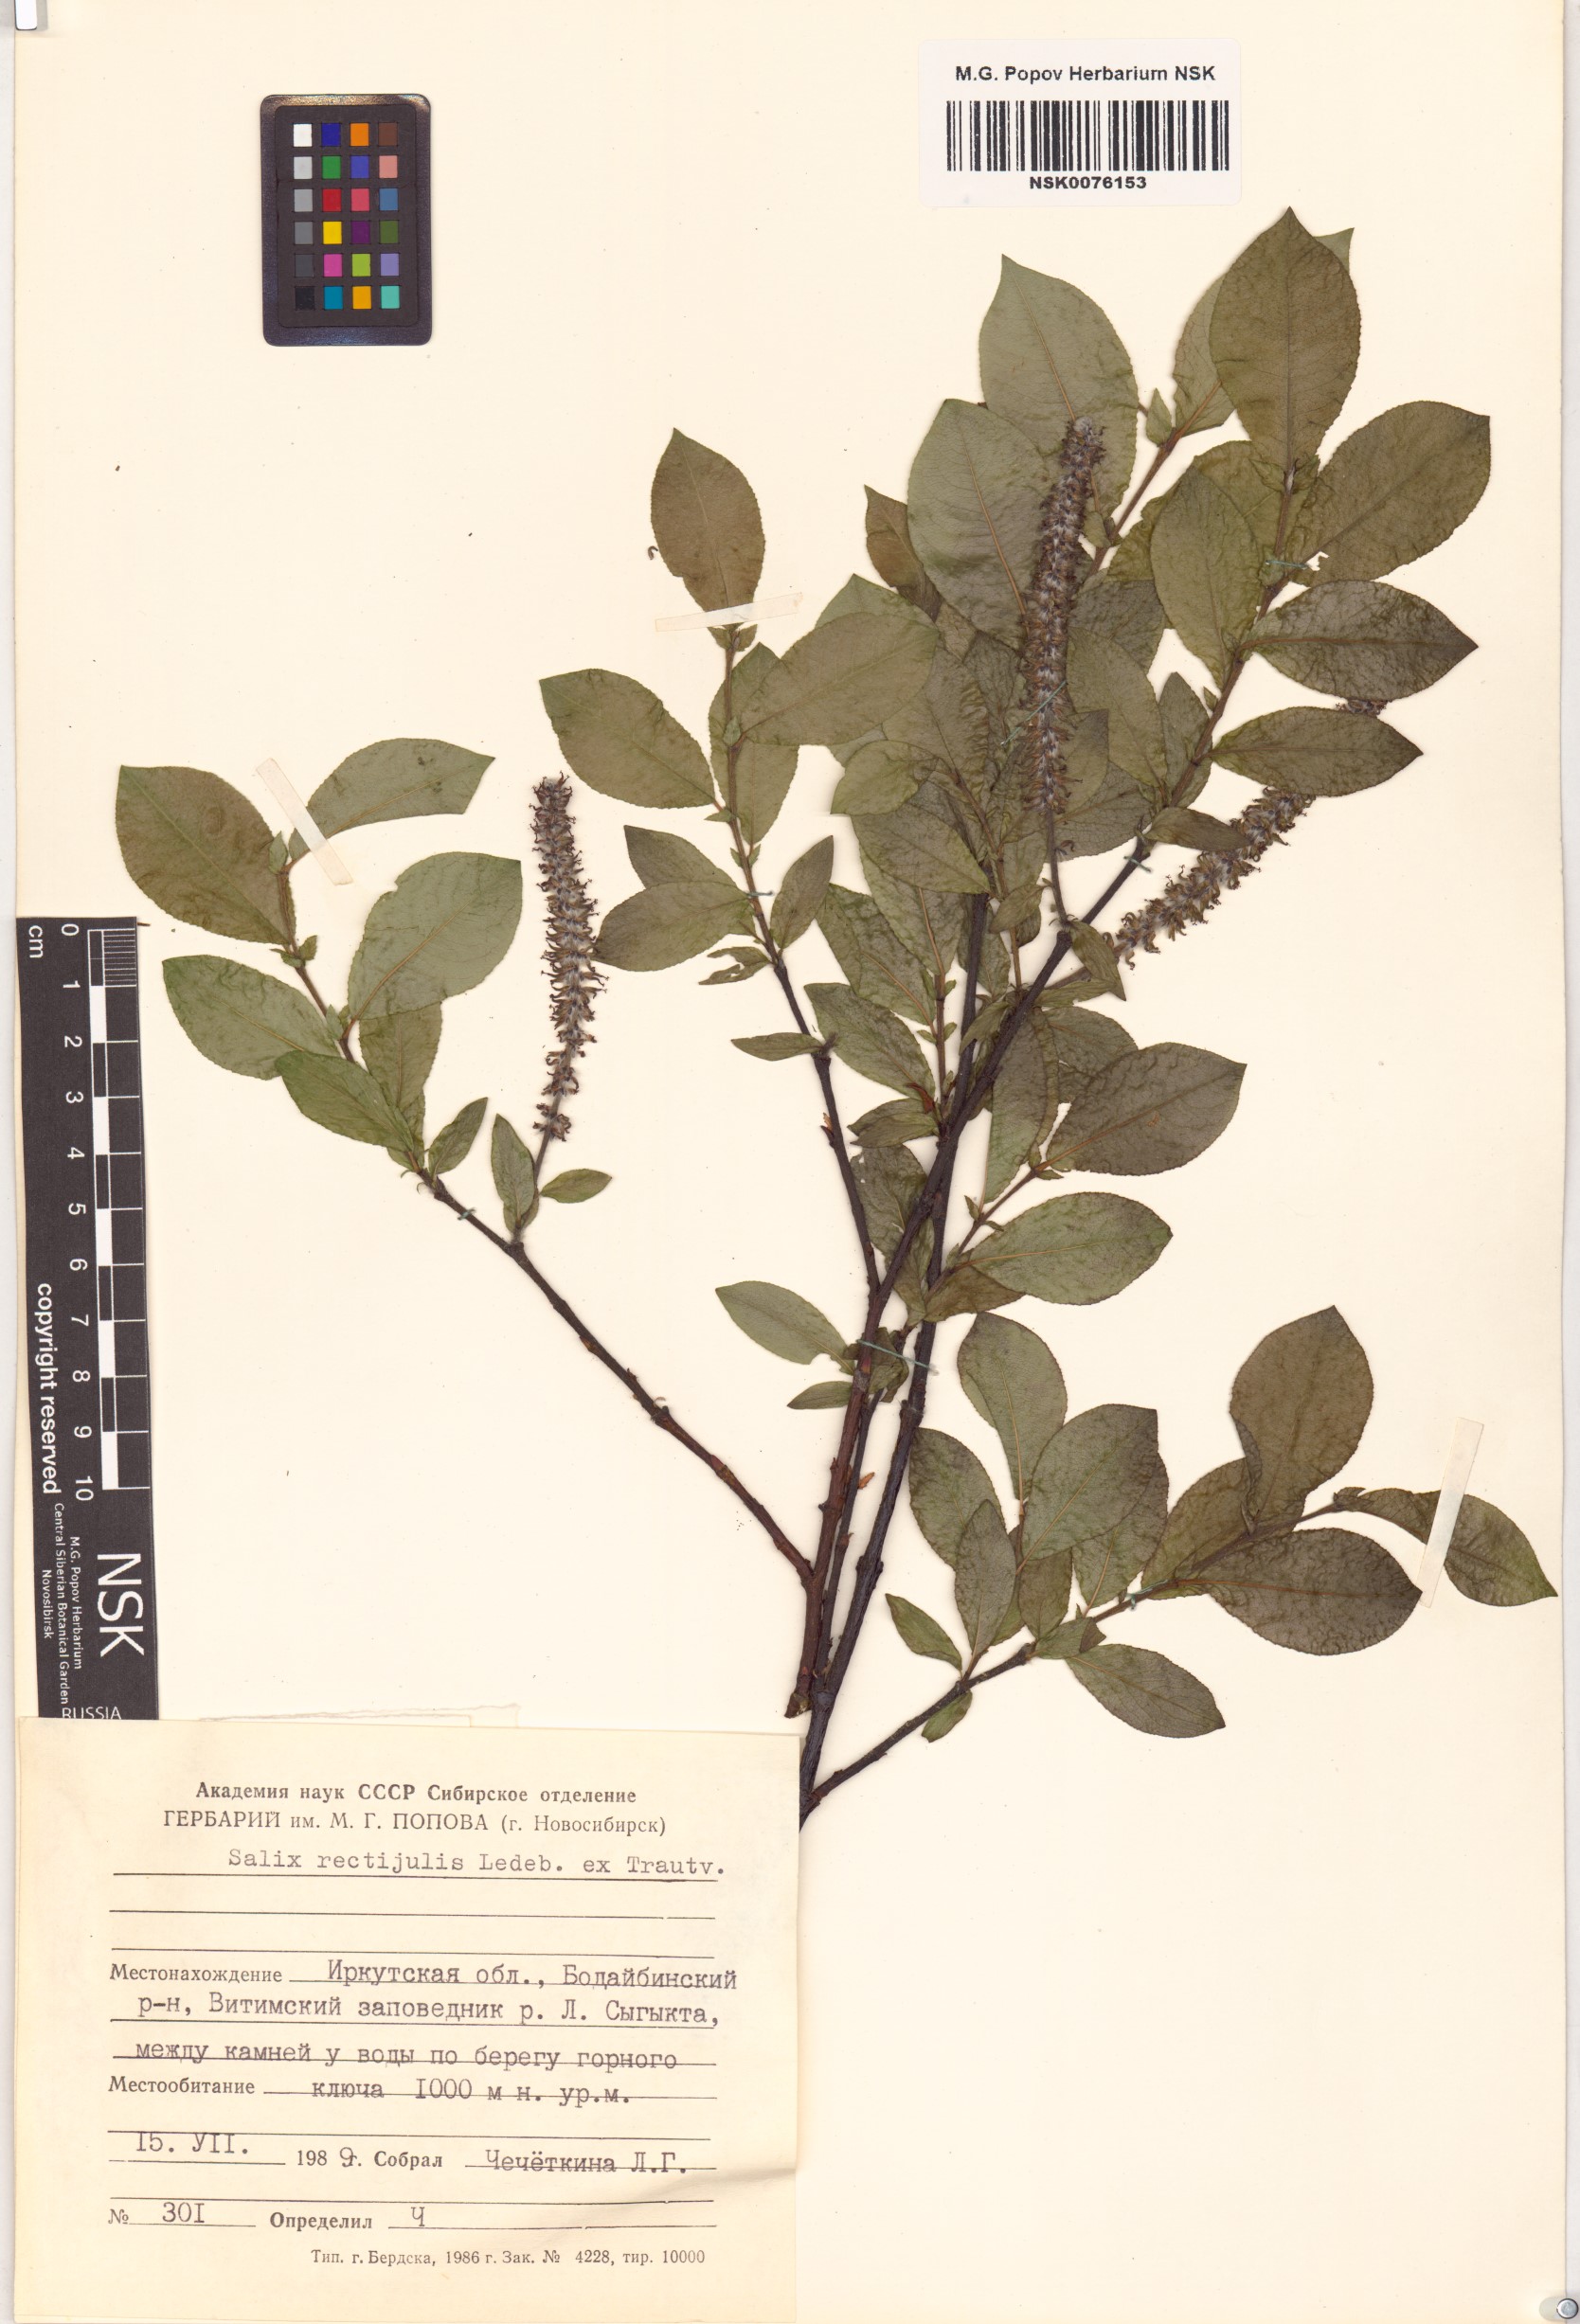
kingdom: Plantae
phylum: Tracheophyta
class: Magnoliopsida
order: Malpighiales
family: Salicaceae
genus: Salix
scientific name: Salix rectijulis
